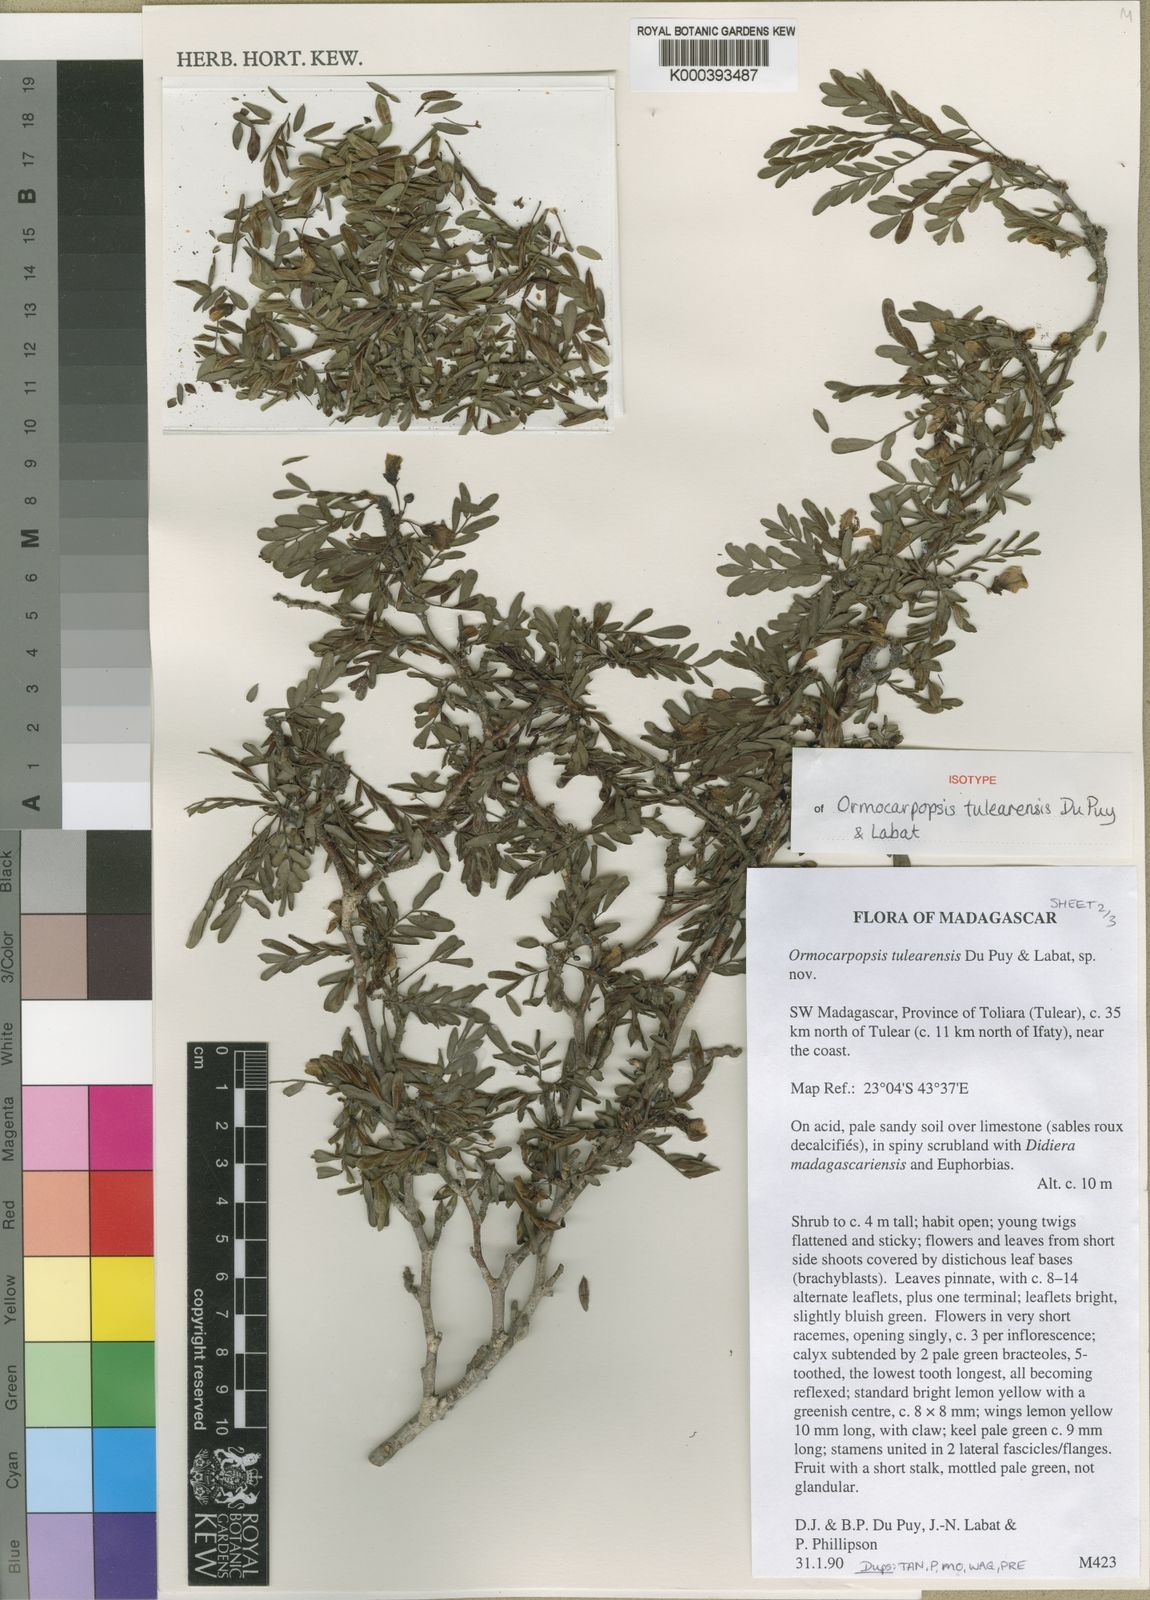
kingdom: Plantae
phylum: Tracheophyta
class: Magnoliopsida
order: Fabales
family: Fabaceae
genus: Ormocarpopsis
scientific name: Ormocarpopsis tulearensis
